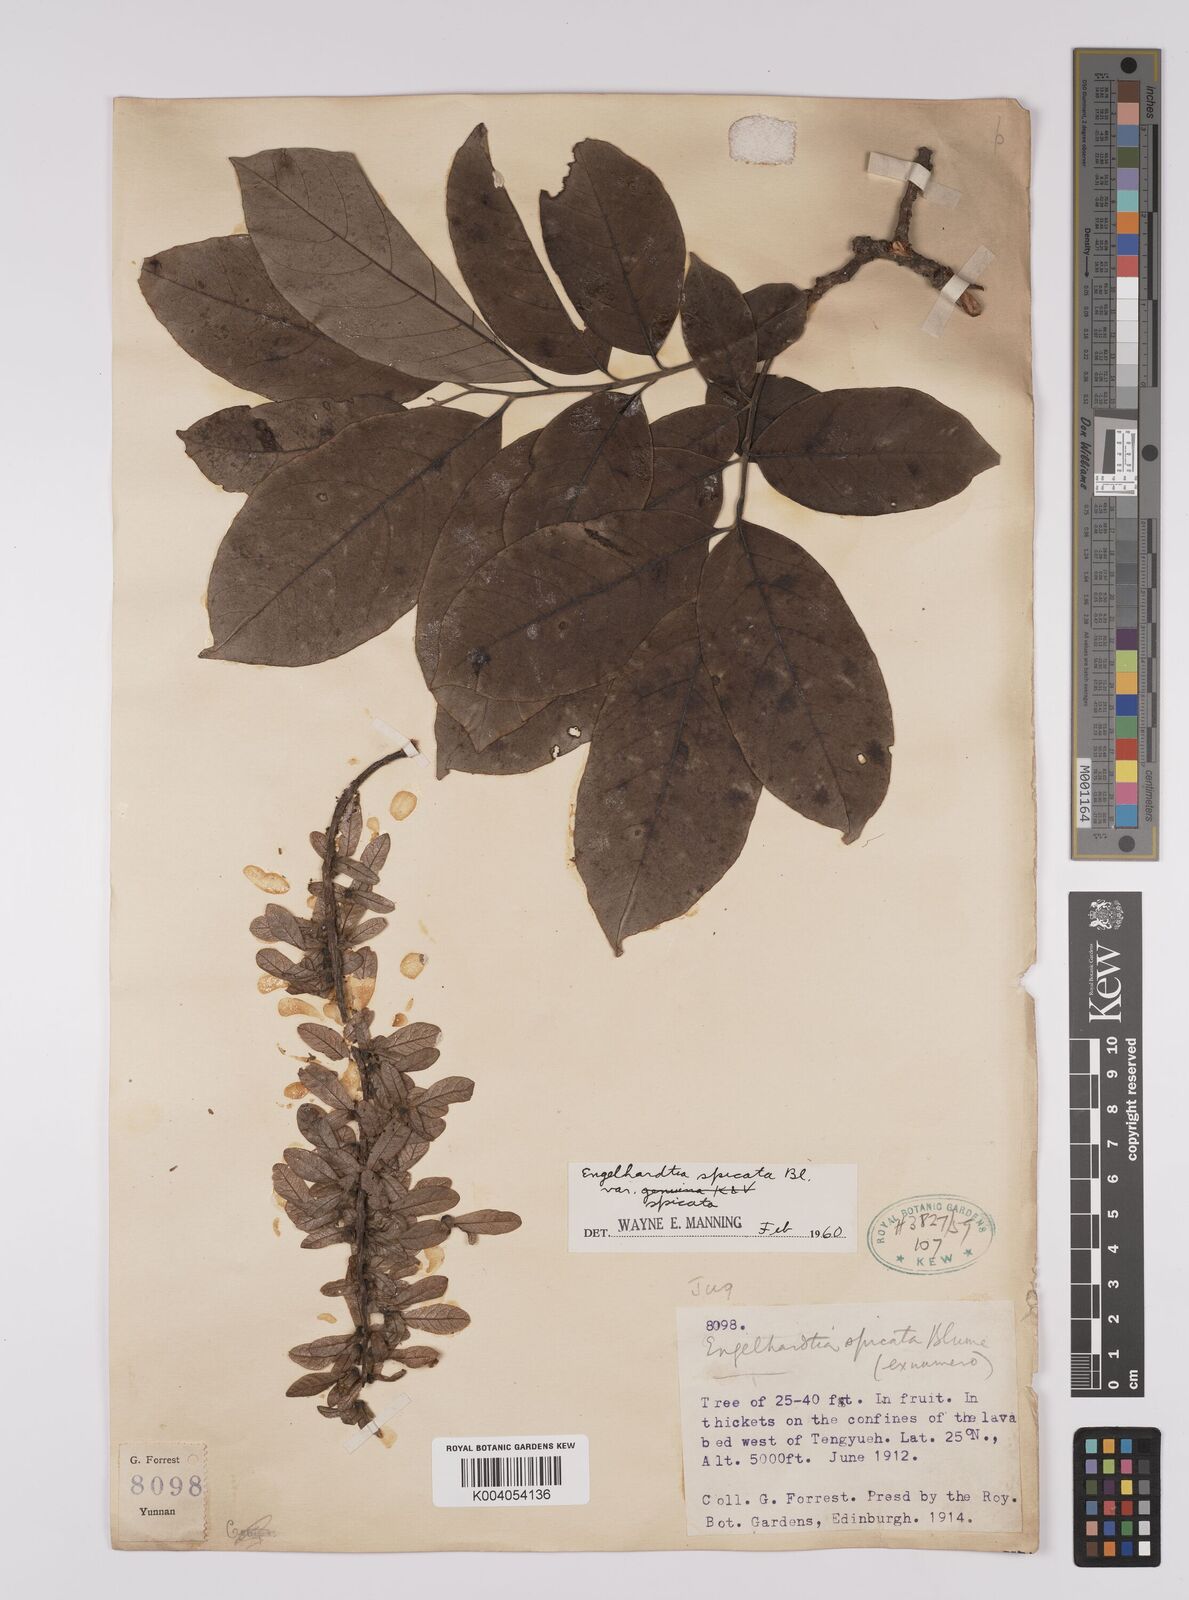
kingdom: Plantae
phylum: Tracheophyta
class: Magnoliopsida
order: Fagales
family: Juglandaceae
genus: Engelhardia
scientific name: Engelhardia spicata
